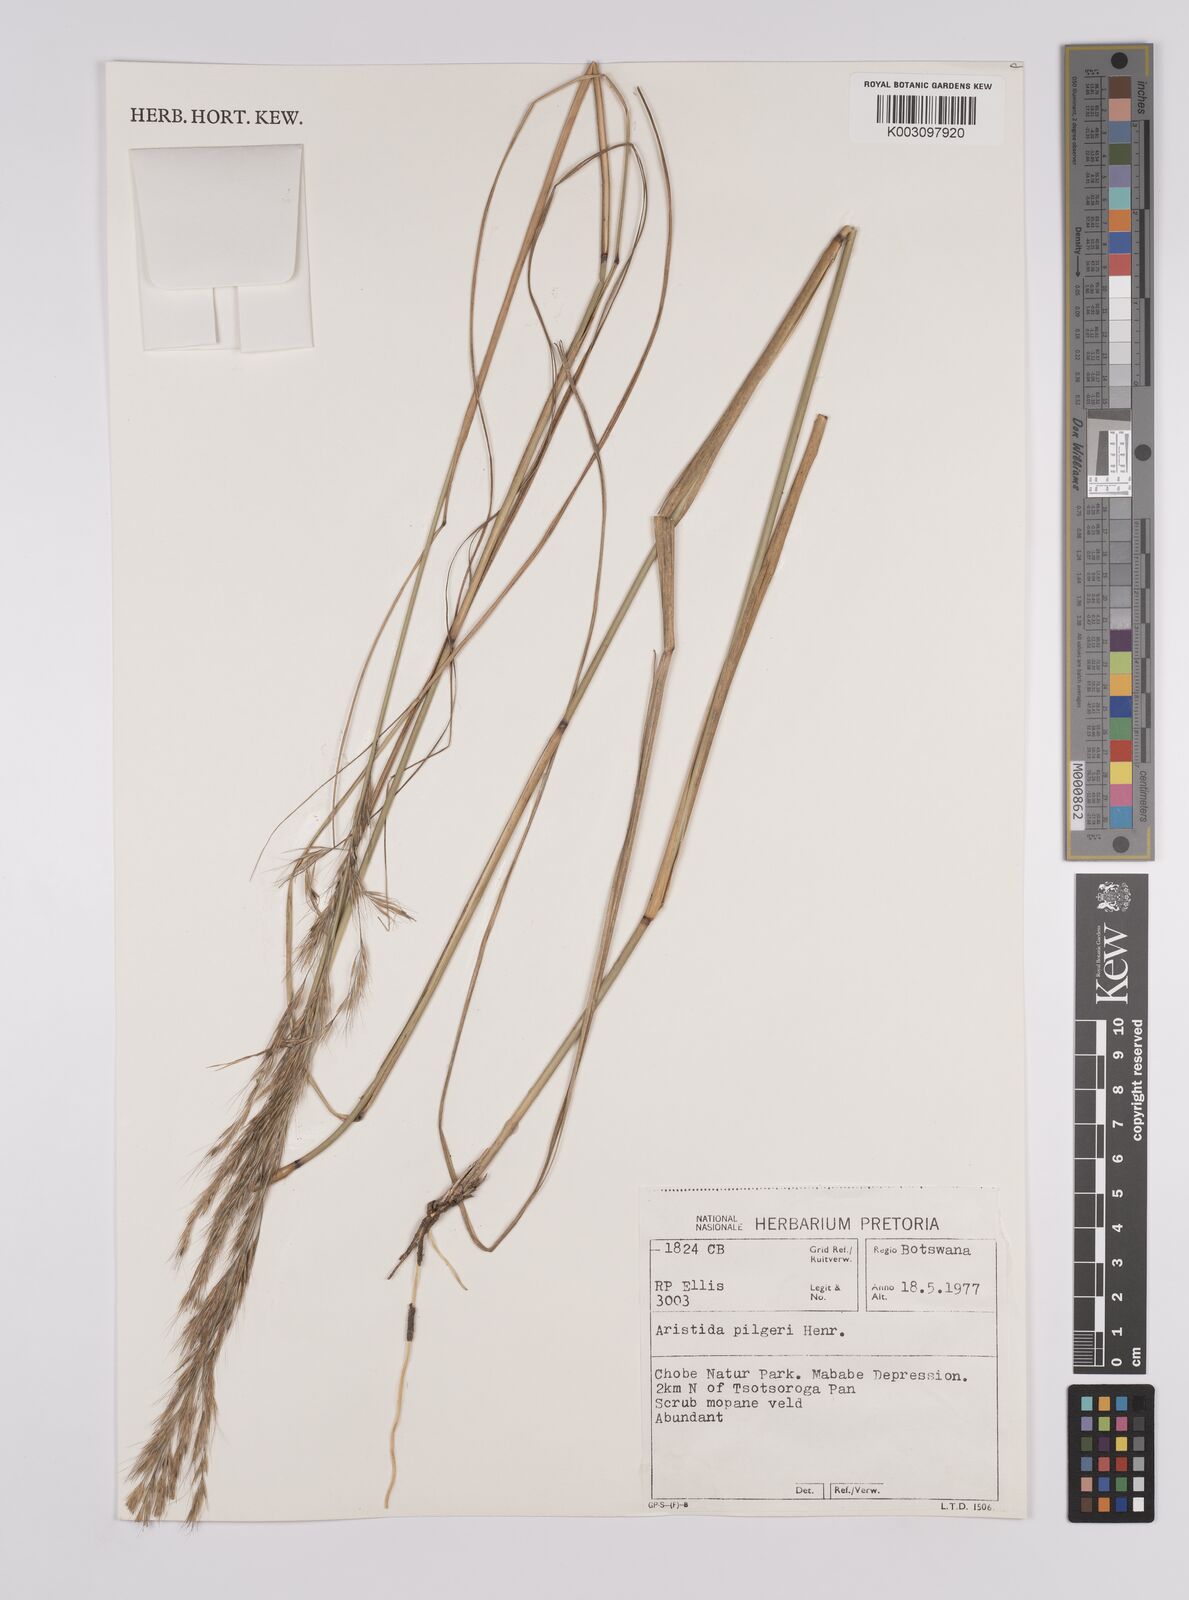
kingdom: Plantae
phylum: Tracheophyta
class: Liliopsida
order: Poales
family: Poaceae
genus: Aristida
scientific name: Aristida pilgeri
